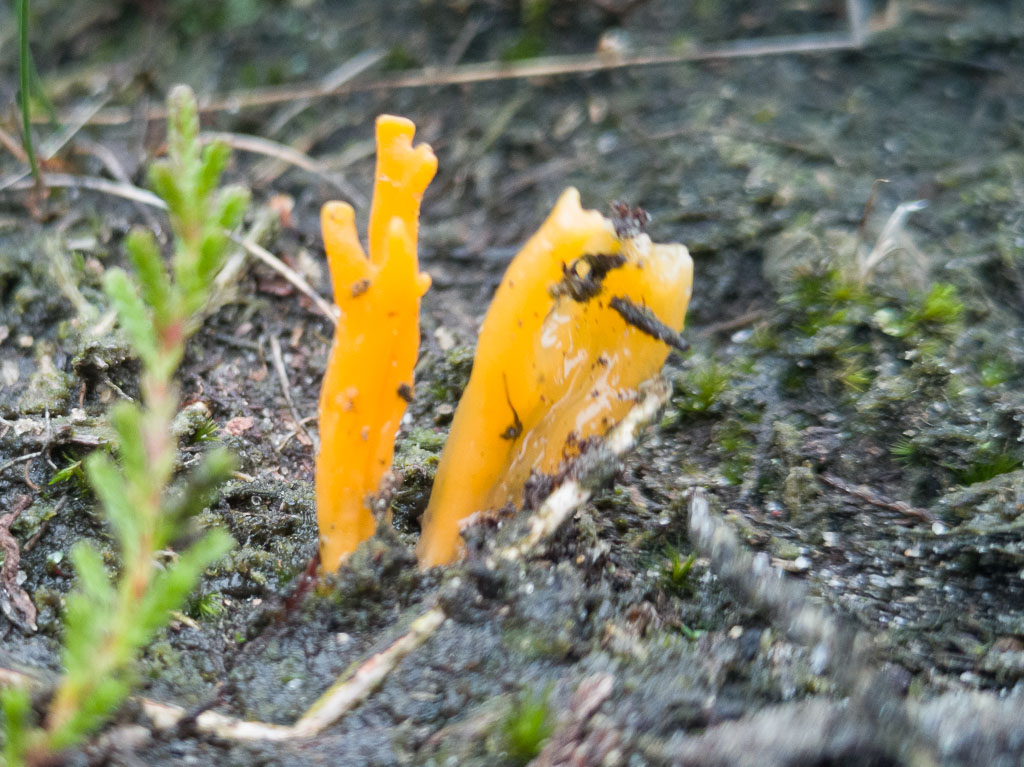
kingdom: Fungi
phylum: Basidiomycota
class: Dacrymycetes
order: Dacrymycetales
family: Dacrymycetaceae
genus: Calocera
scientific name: Calocera viscosa
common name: almindelig guldgaffel
